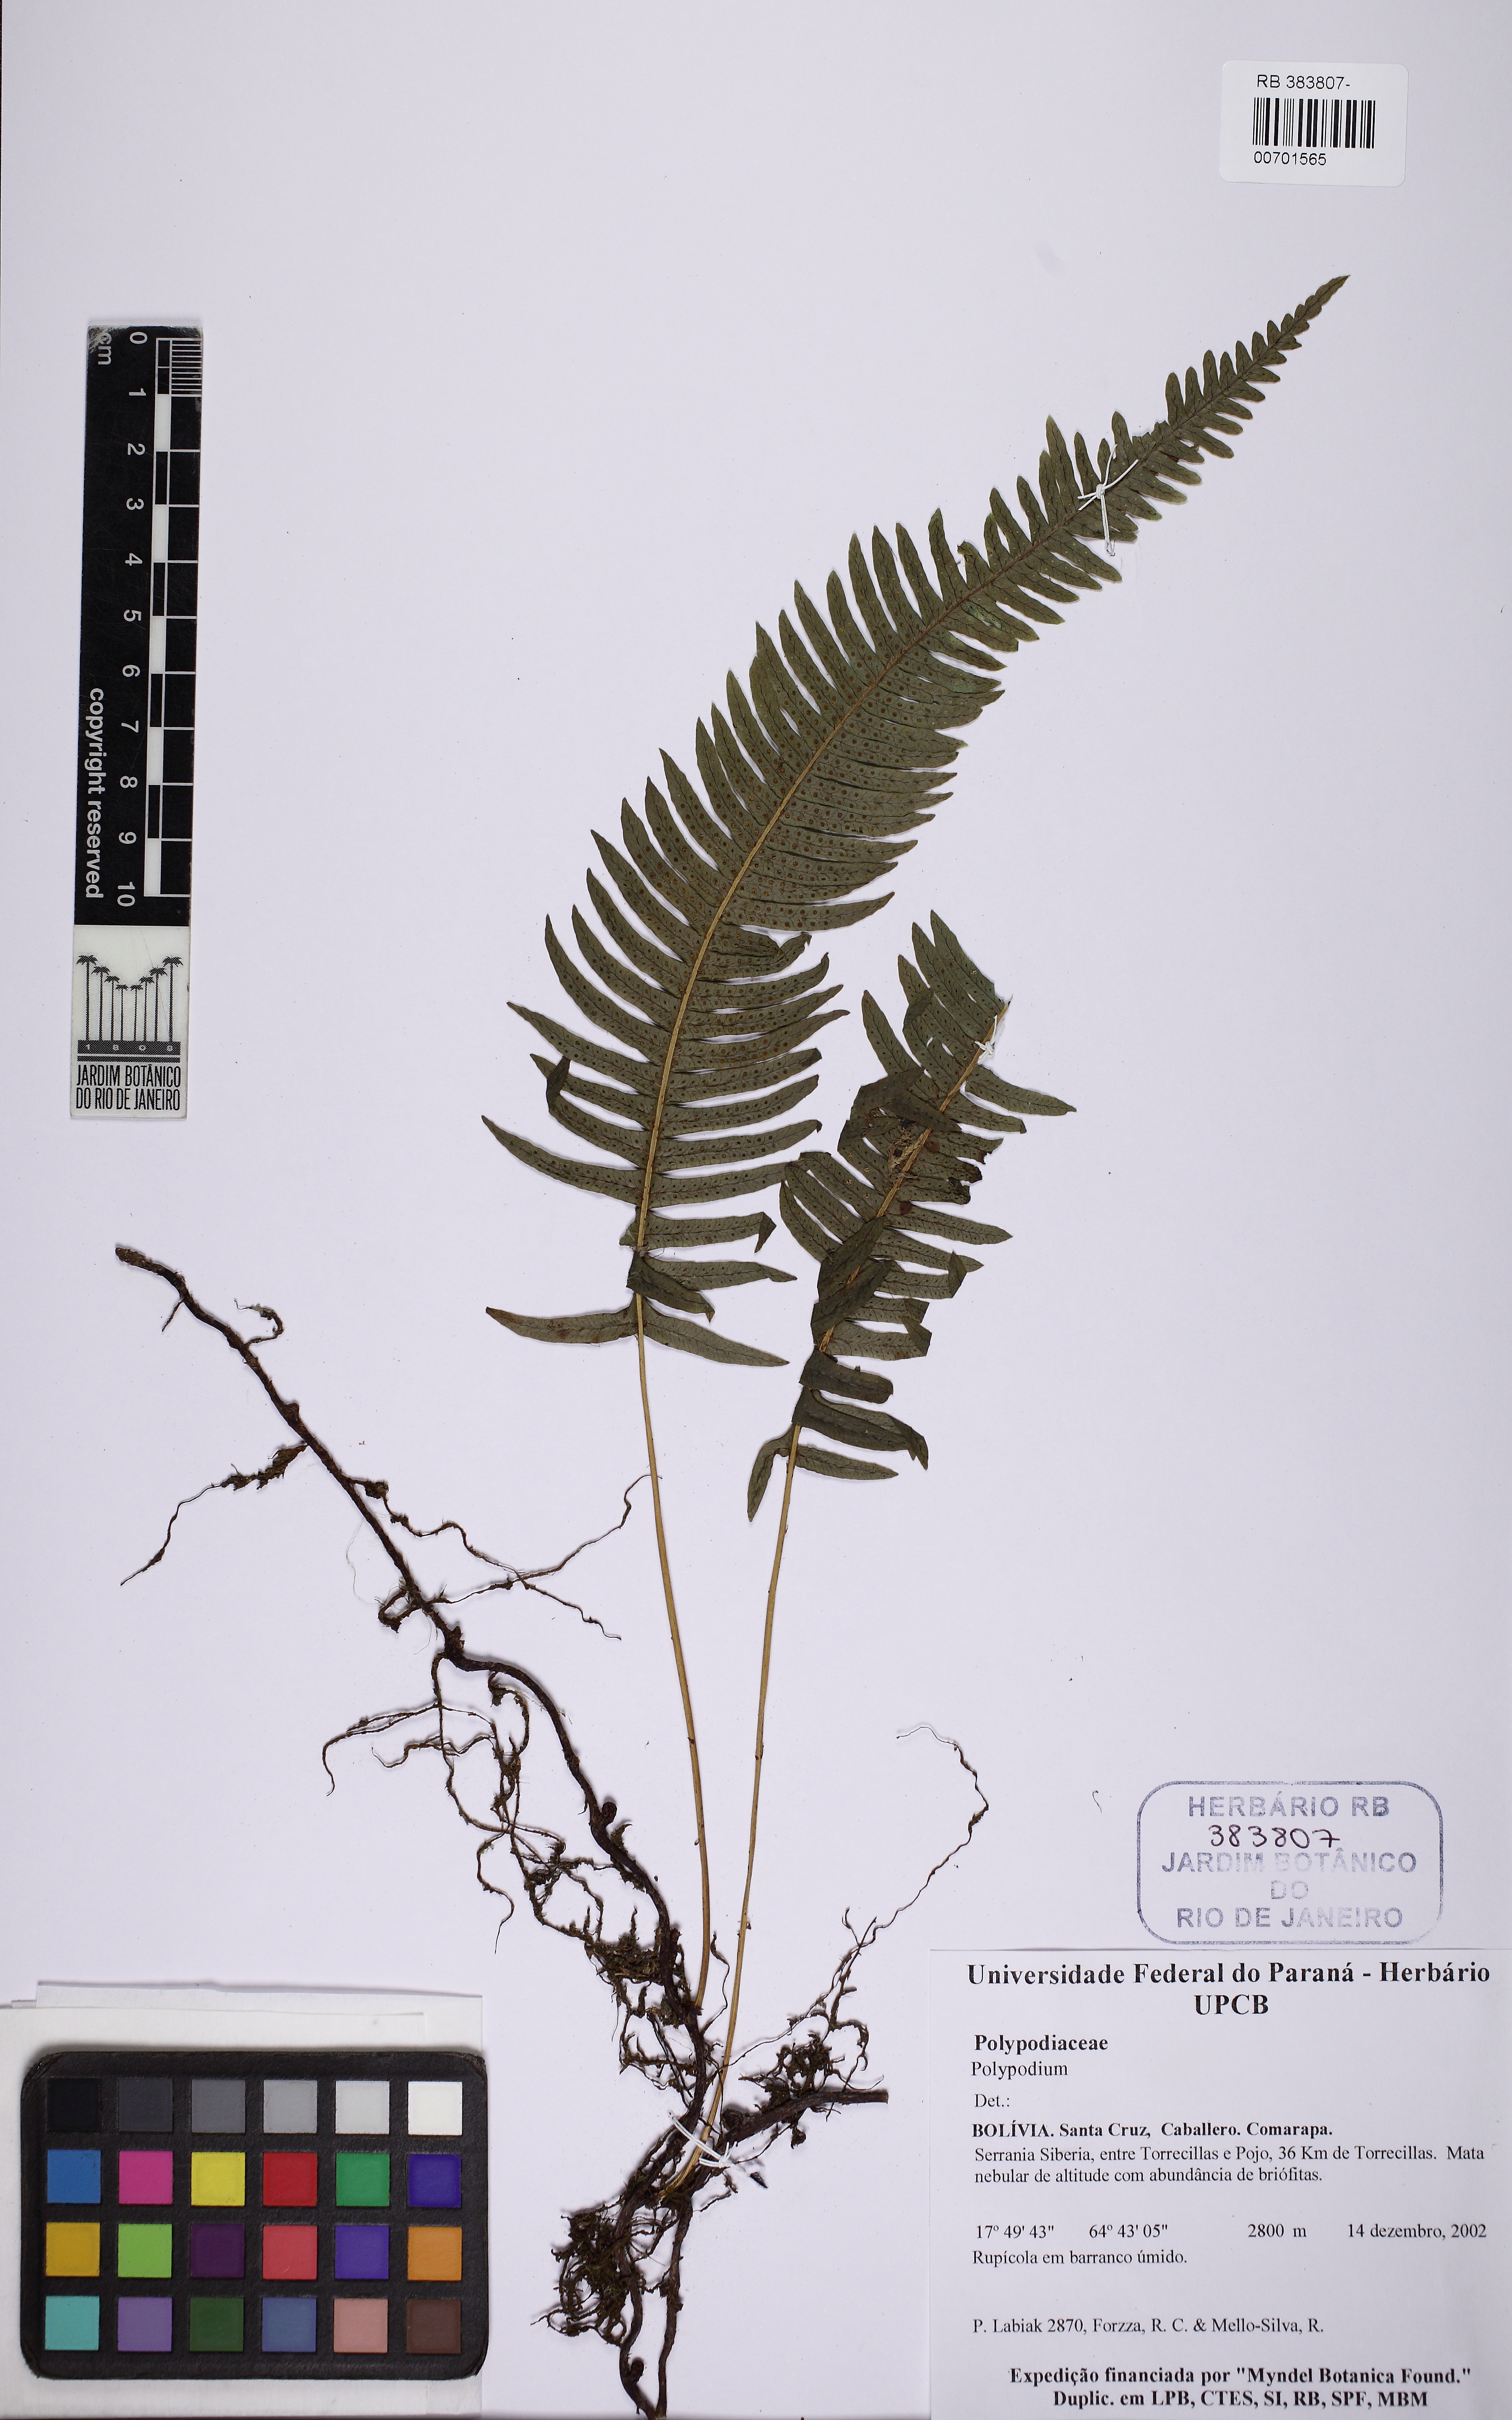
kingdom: Plantae
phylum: Tracheophyta
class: Polypodiopsida
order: Polypodiales
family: Polypodiaceae
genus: Serpocaulon
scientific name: Serpocaulon
